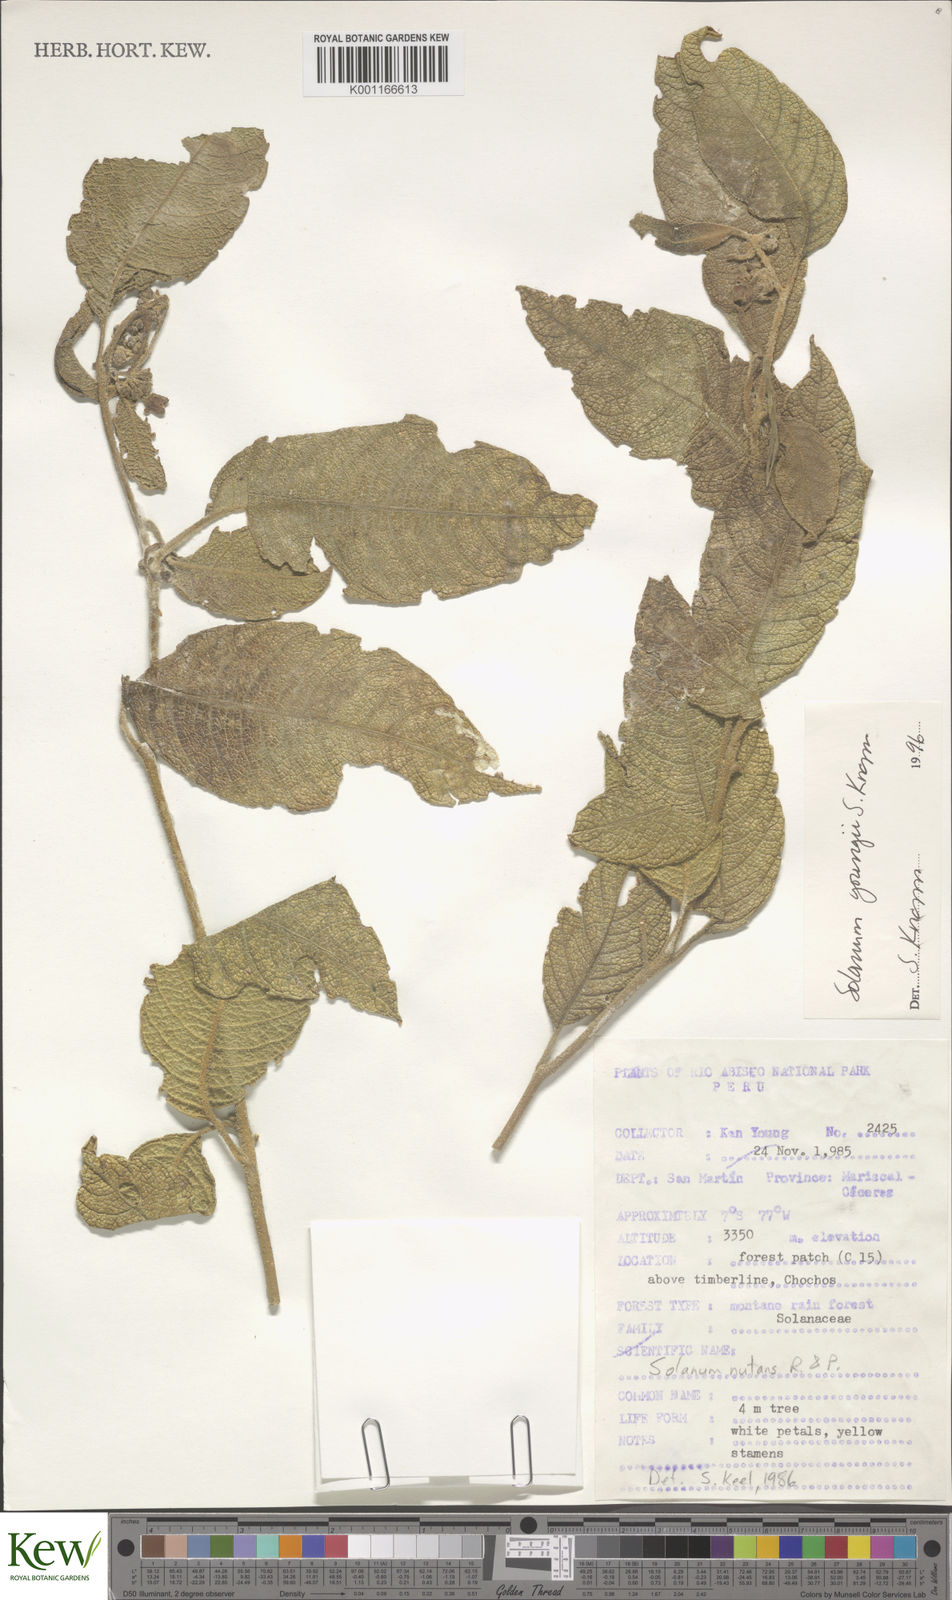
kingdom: Plantae
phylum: Tracheophyta
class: Magnoliopsida
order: Solanales
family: Solanaceae
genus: Solanum
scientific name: Solanum youngii
